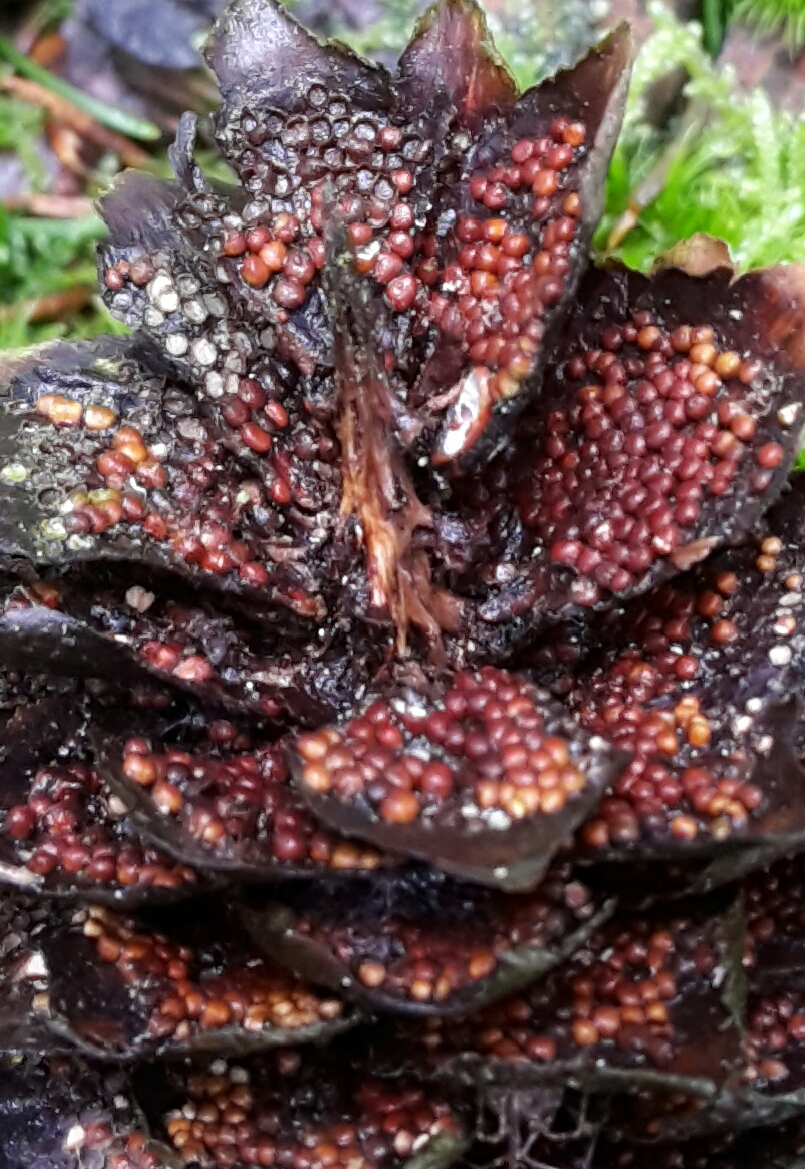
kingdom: Fungi
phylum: Basidiomycota
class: Pucciniomycetes
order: Pucciniales
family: Pucciniastraceae
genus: Thekopsora
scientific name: Thekopsora areolata
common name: grankogle-nålerust
